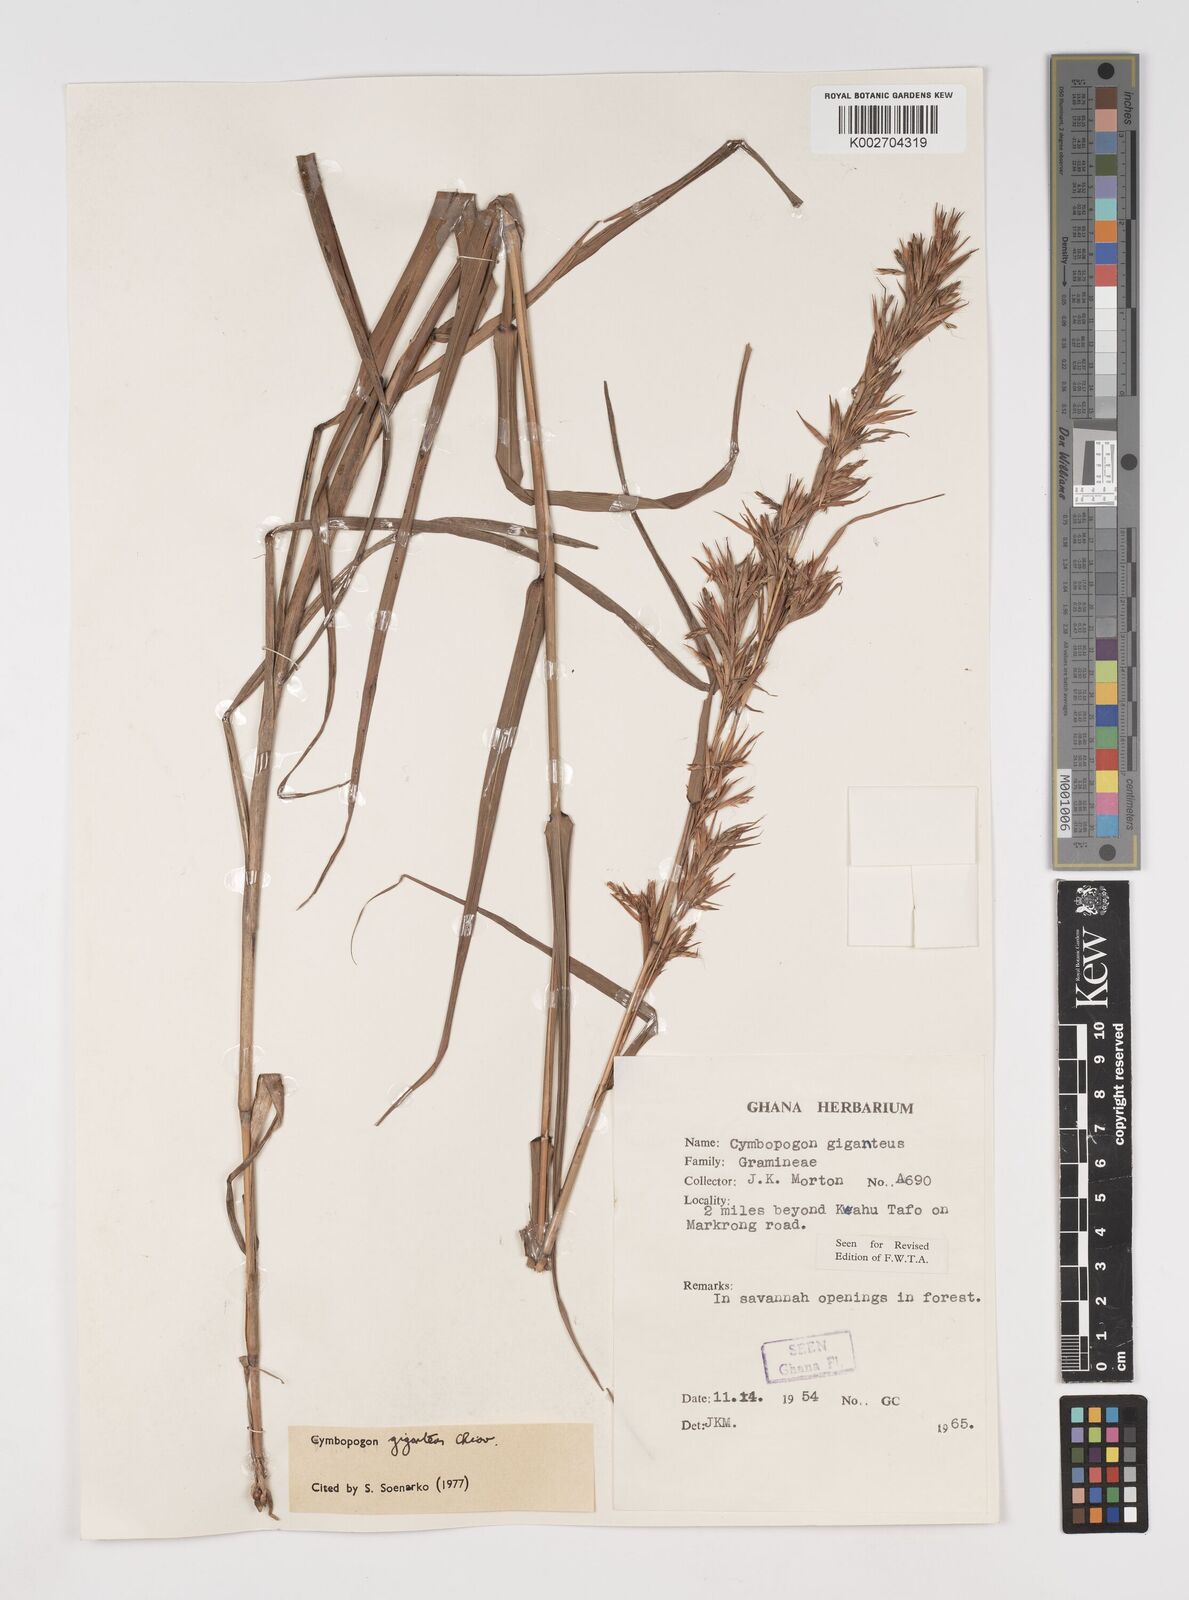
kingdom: Plantae
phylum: Tracheophyta
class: Liliopsida
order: Poales
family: Poaceae
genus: Cymbopogon
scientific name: Cymbopogon giganteus
